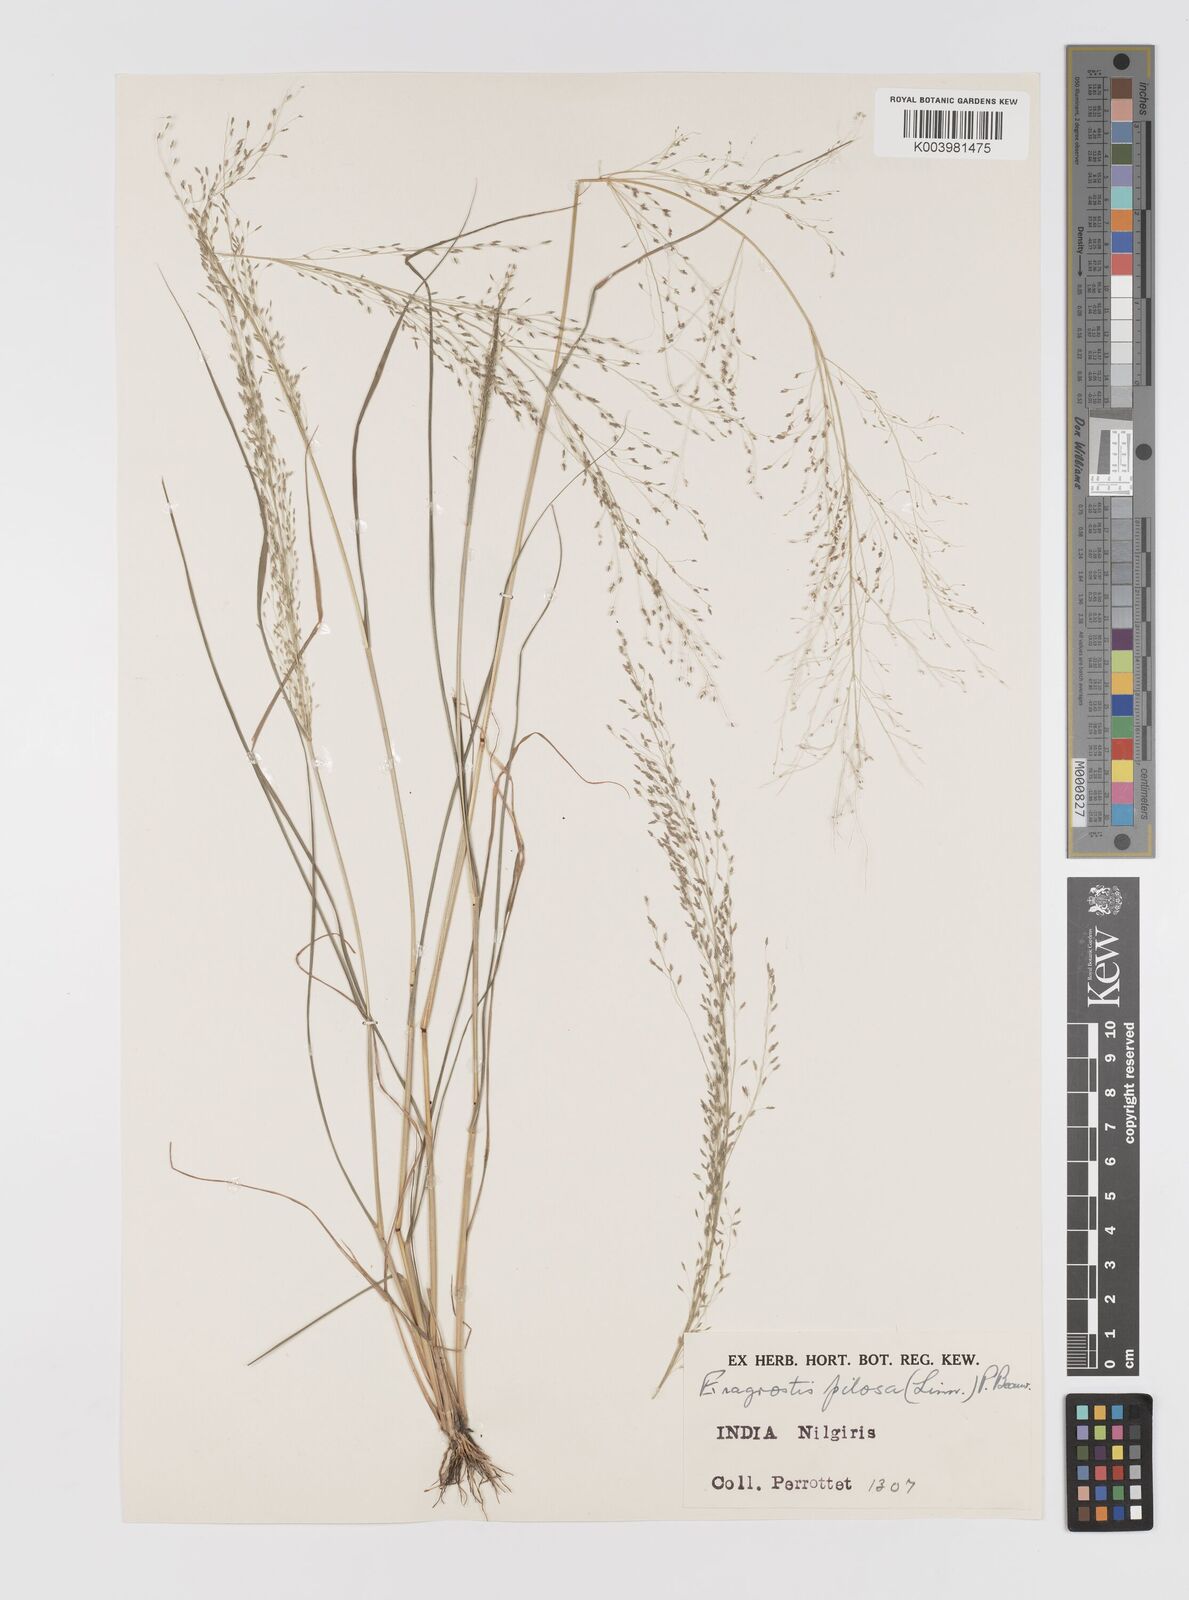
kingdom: Plantae
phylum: Tracheophyta
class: Liliopsida
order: Poales
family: Poaceae
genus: Eragrostis
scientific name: Eragrostis pilosa
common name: Indian lovegrass
